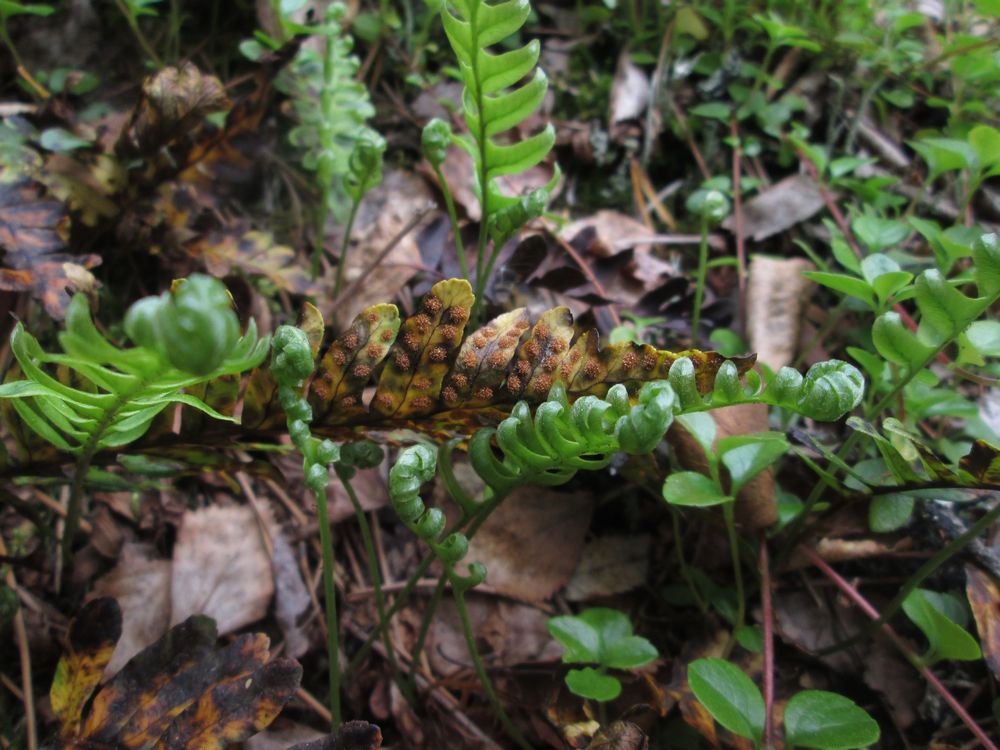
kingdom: Plantae
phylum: Tracheophyta
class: Polypodiopsida
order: Polypodiales
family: Polypodiaceae
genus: Polypodium
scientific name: Polypodium vulgare
